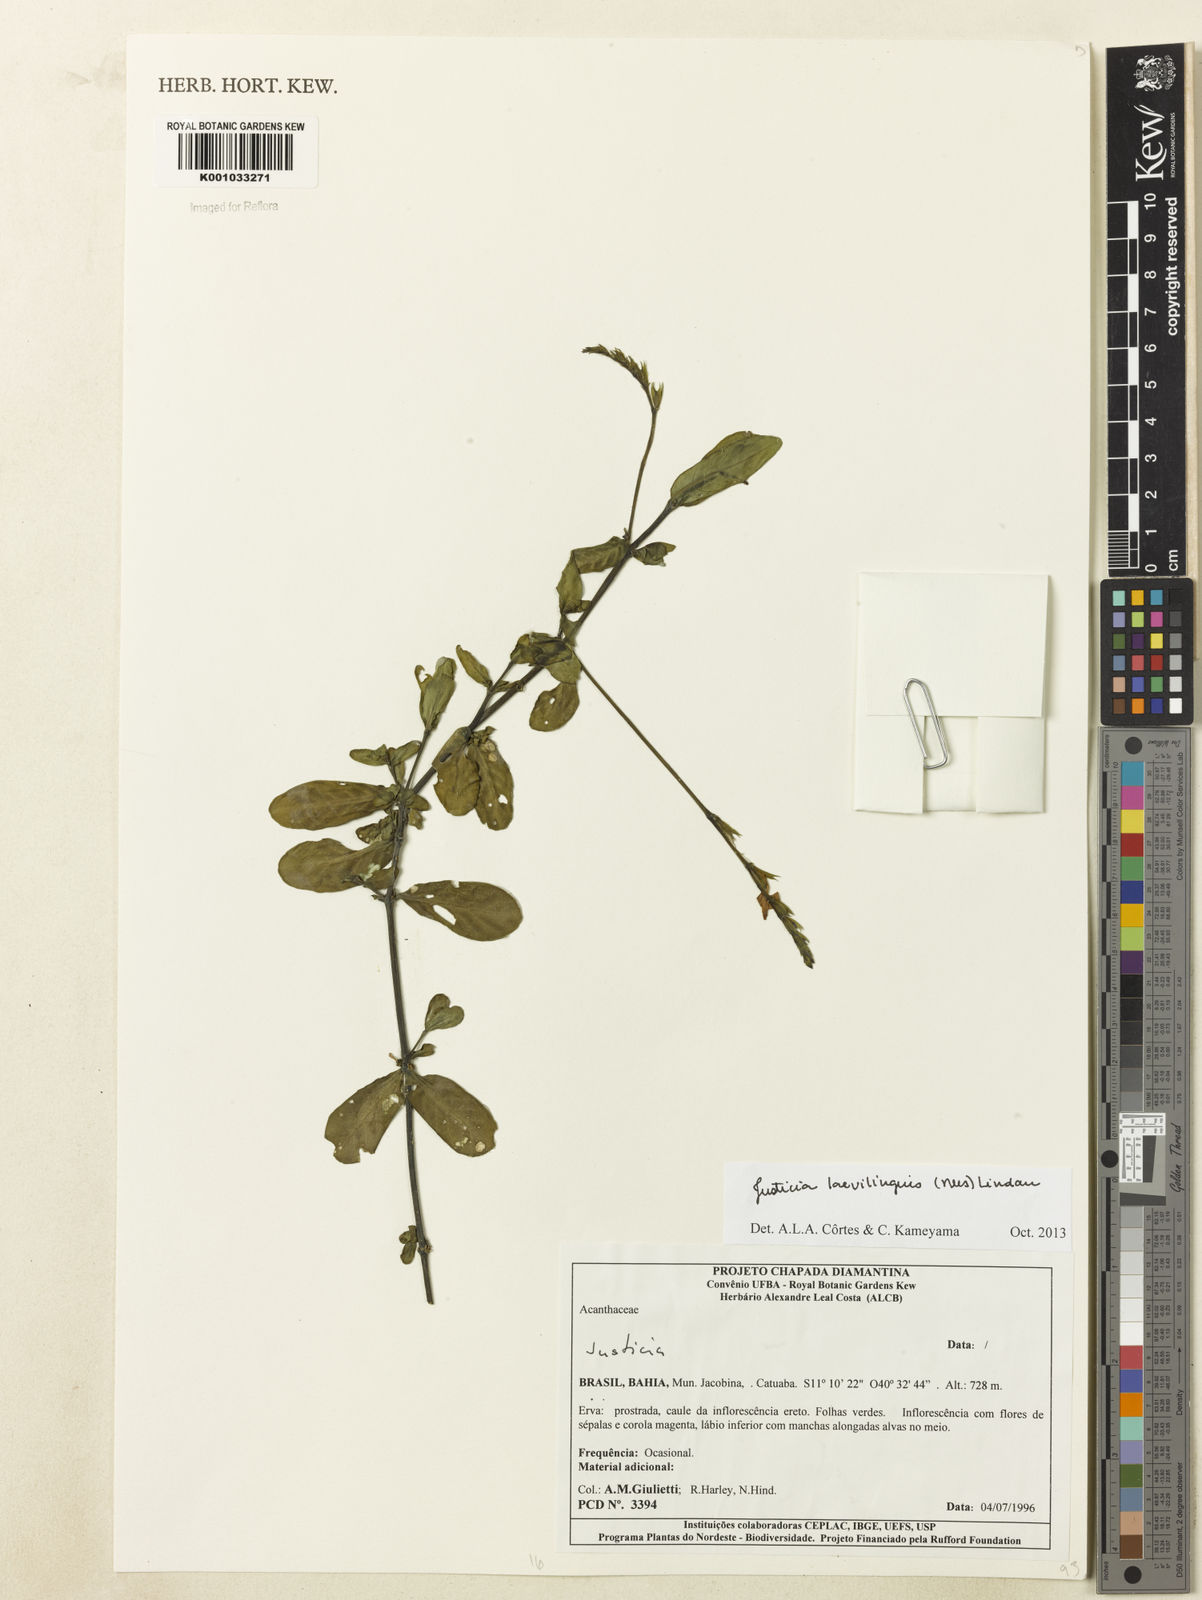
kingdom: Plantae
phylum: Tracheophyta
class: Magnoliopsida
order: Lamiales
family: Acanthaceae
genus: Dianthera
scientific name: Dianthera laevilinguis
